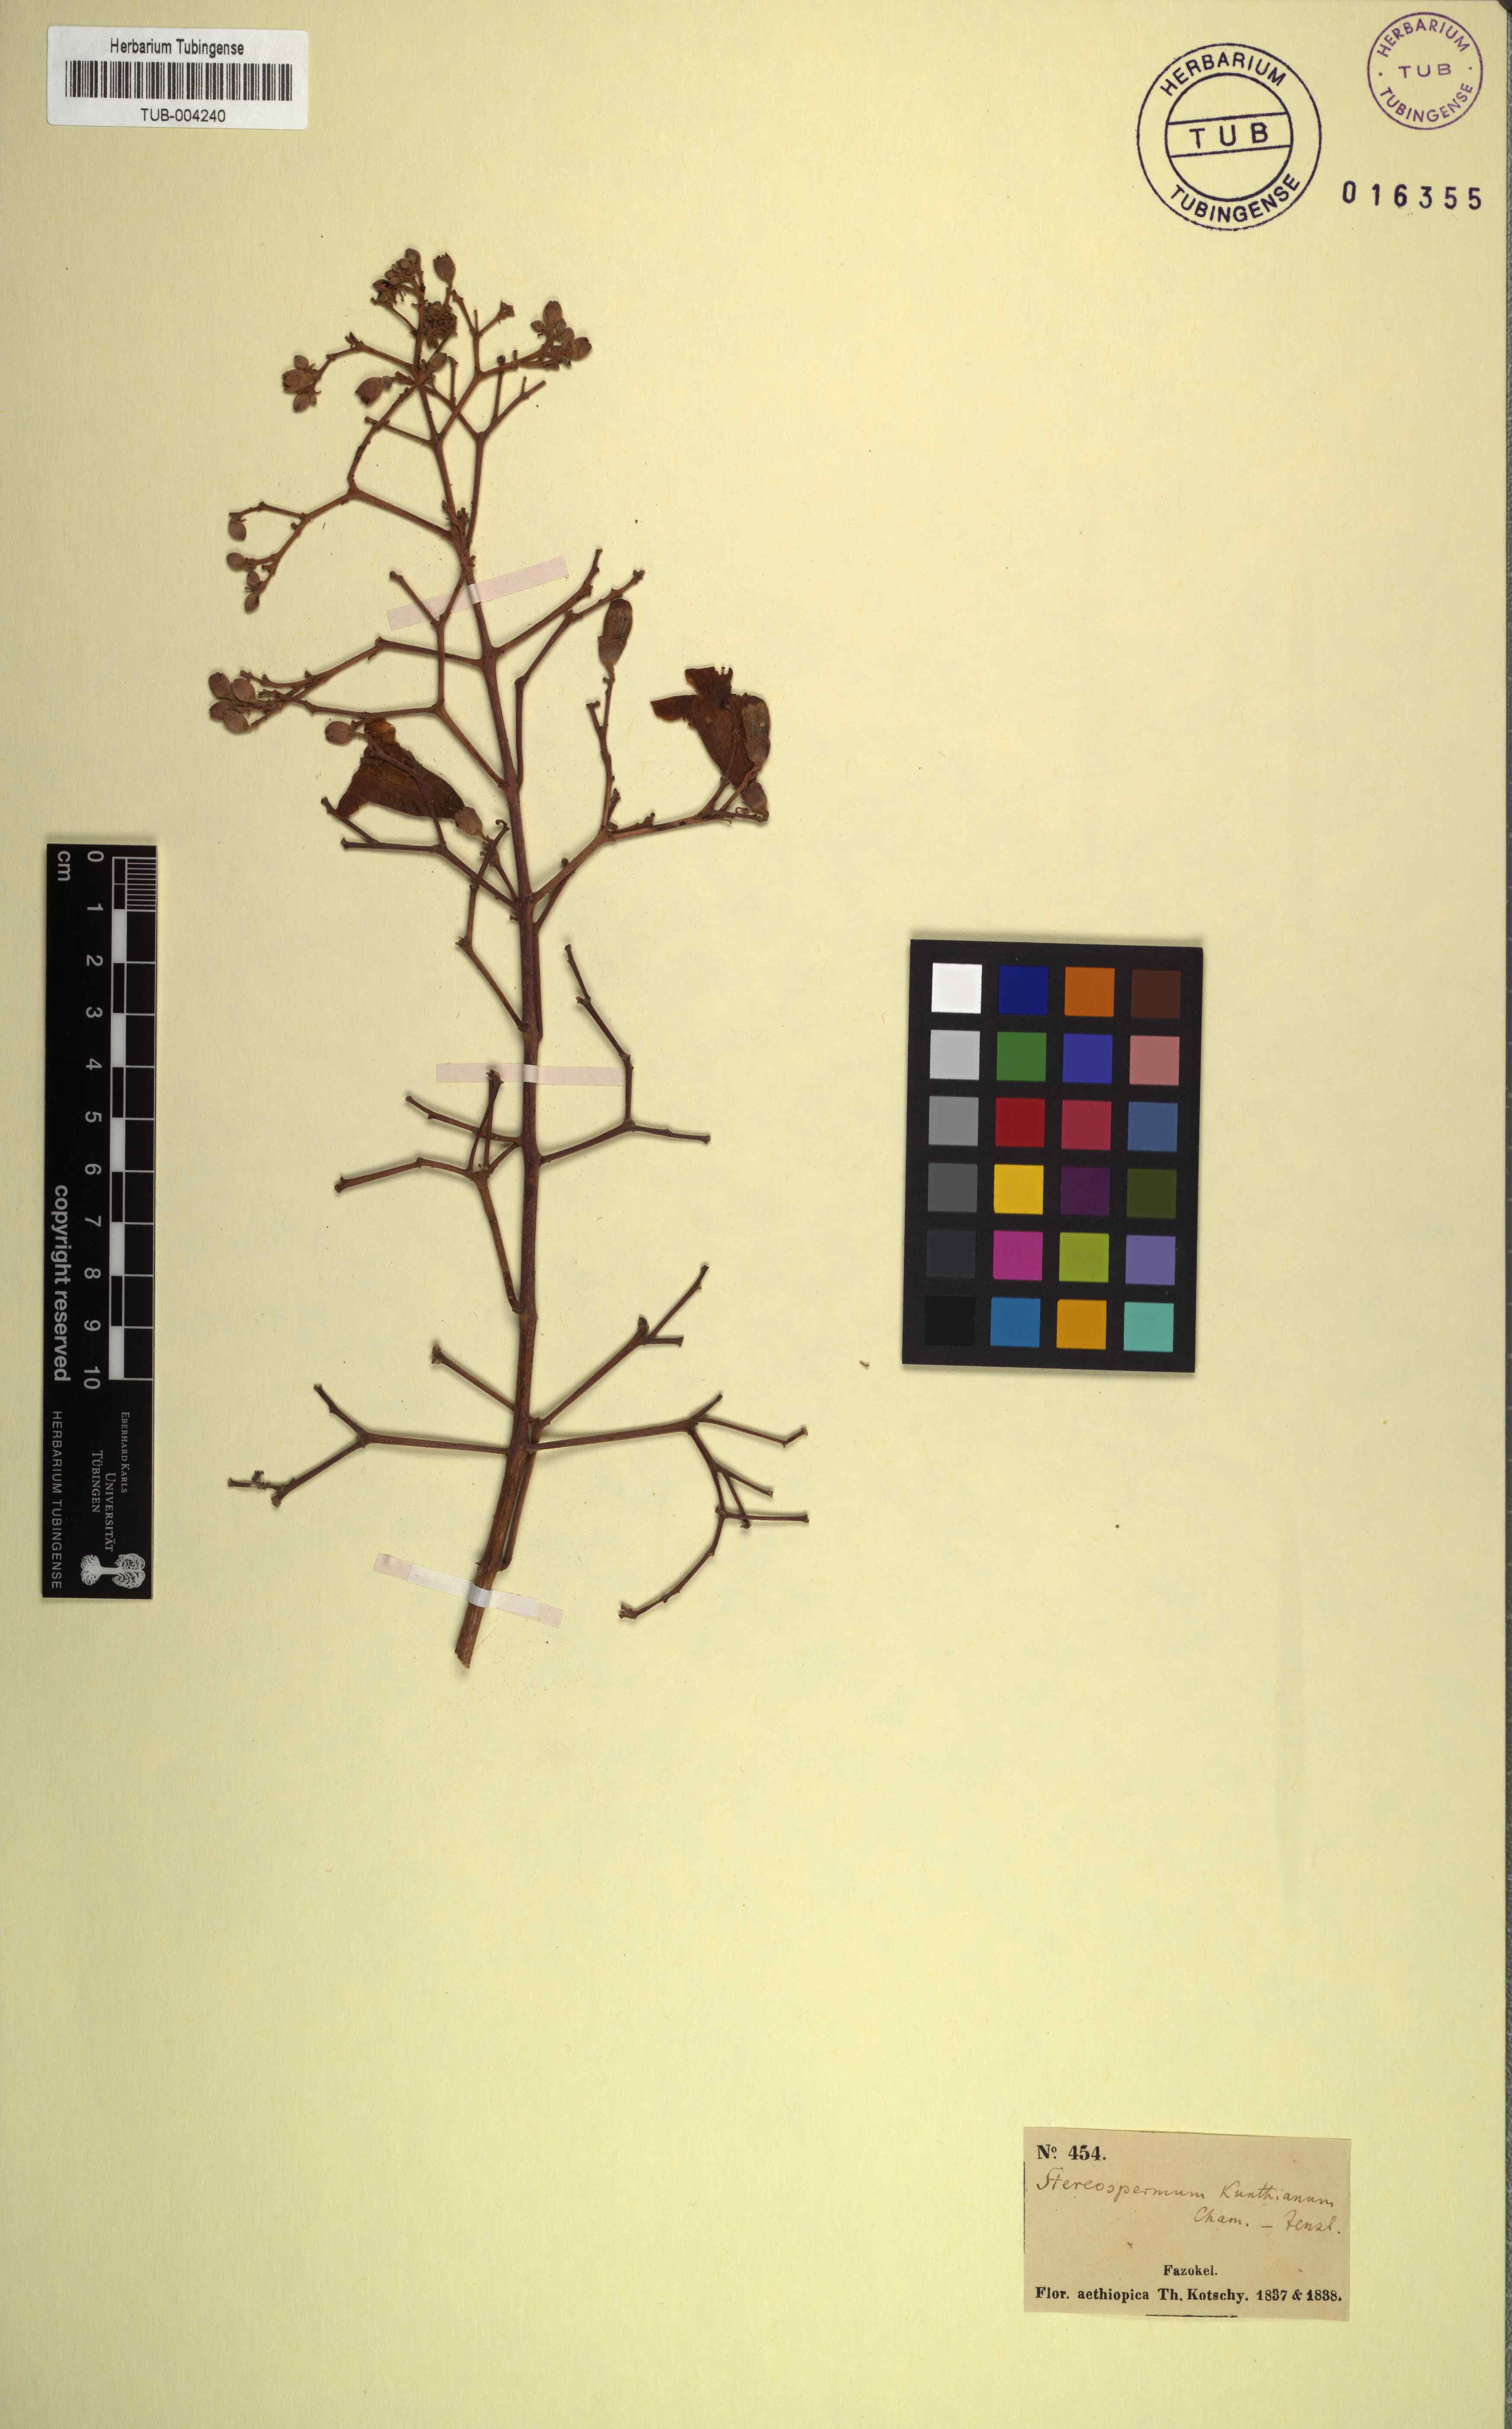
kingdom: Plantae
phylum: Tracheophyta
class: Magnoliopsida
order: Lamiales
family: Bignoniaceae
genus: Stereospermum
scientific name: Stereospermum kunthianum
